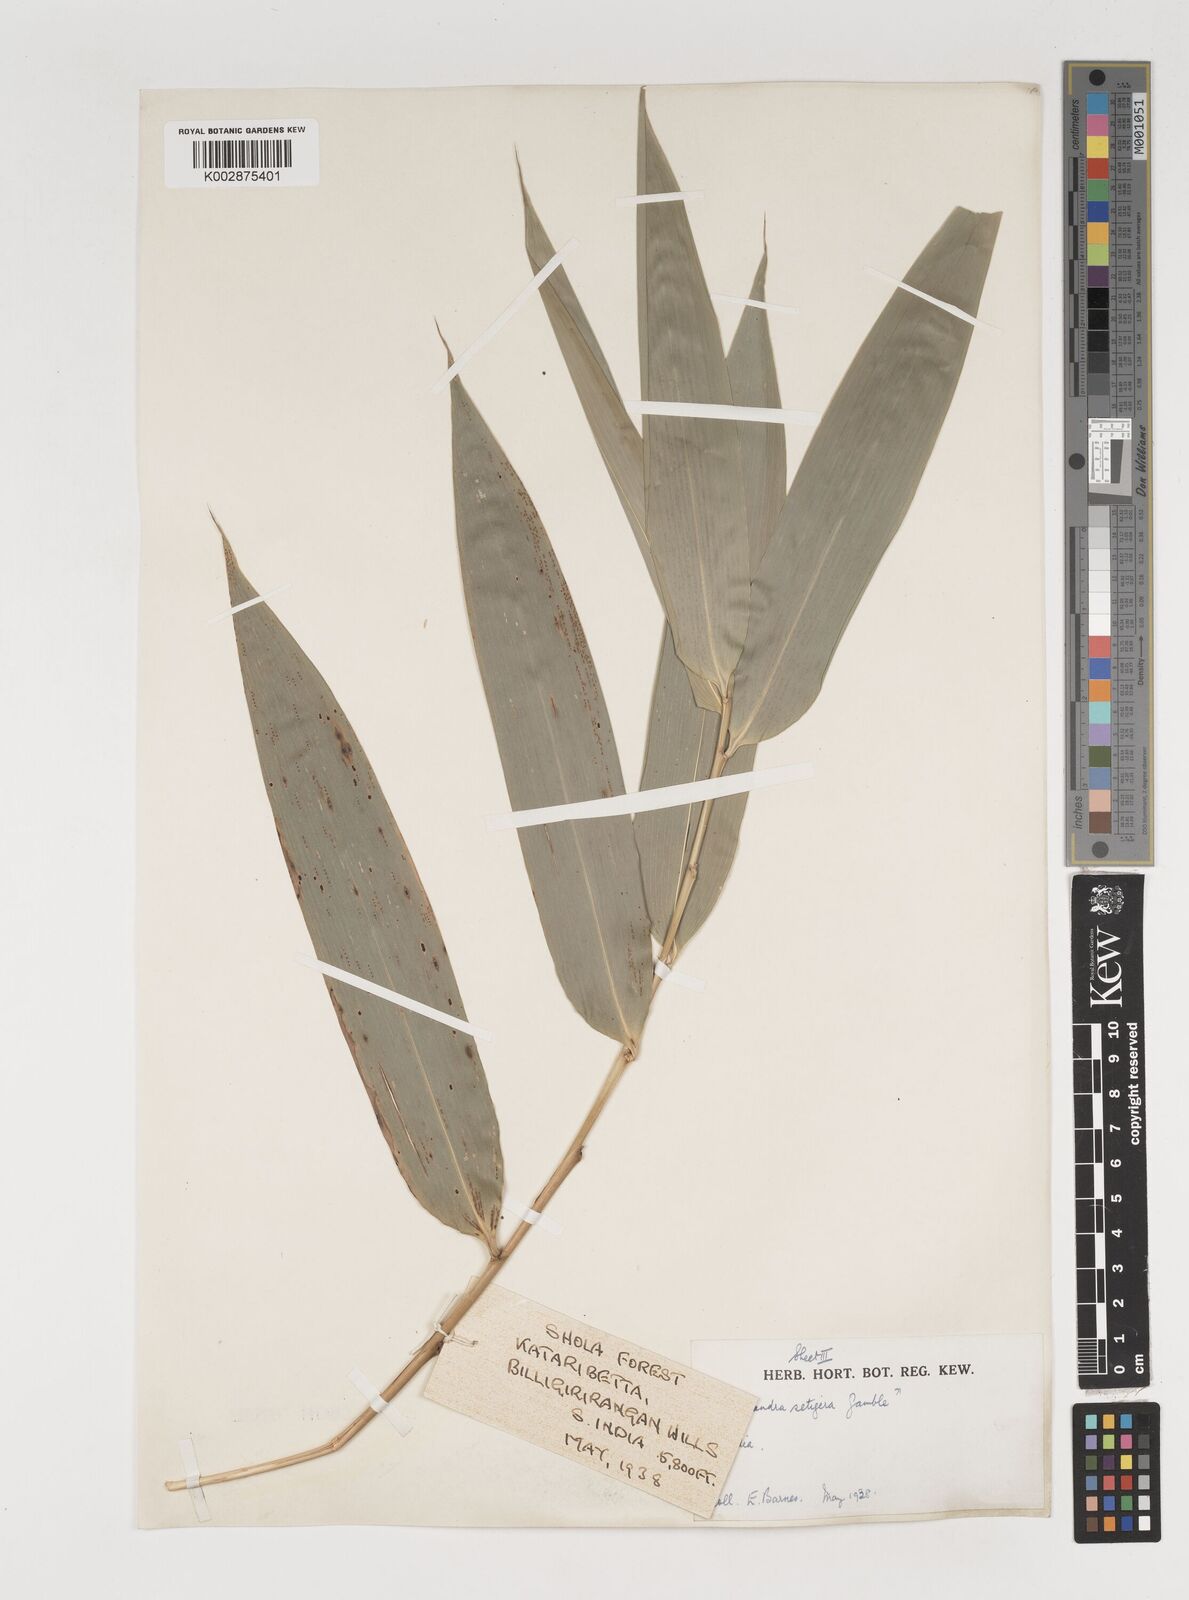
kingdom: Plantae
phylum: Tracheophyta
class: Liliopsida
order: Poales
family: Poaceae
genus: Dendrocalamus
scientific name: Dendrocalamus
